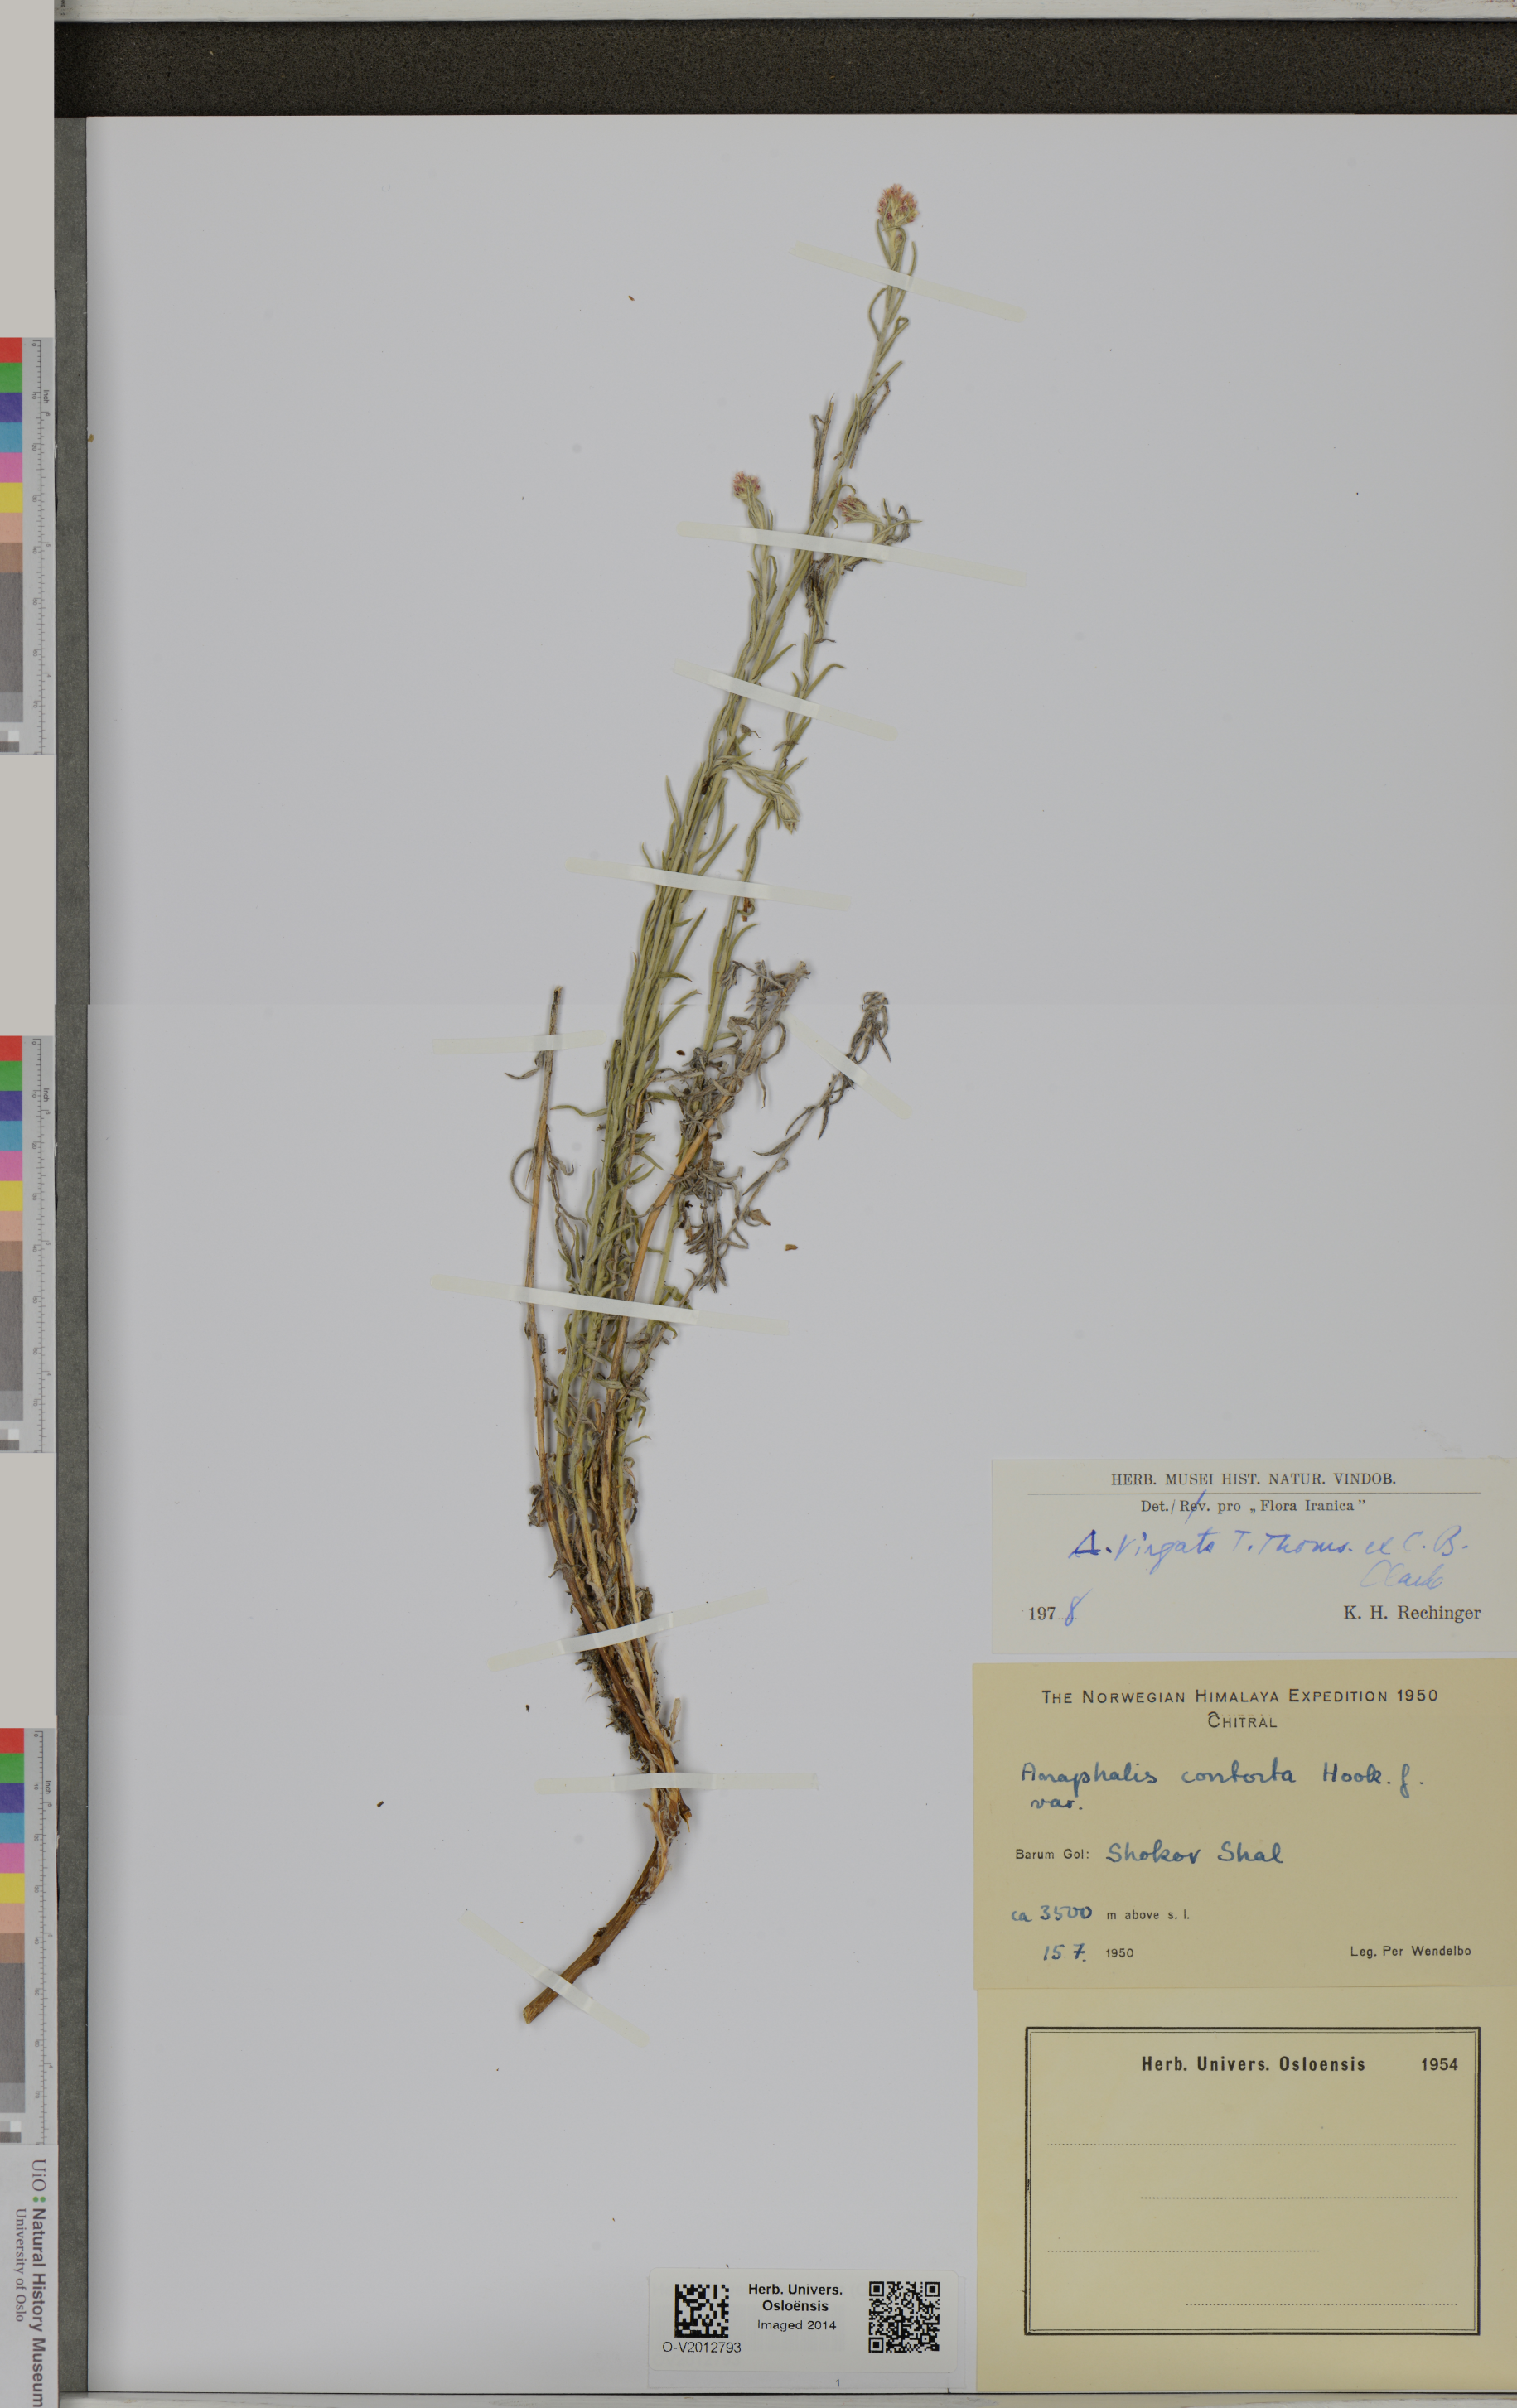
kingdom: Plantae
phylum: Tracheophyta
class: Magnoliopsida
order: Asterales
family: Asteraceae
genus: Anaphalis
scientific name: Anaphalis virgata
